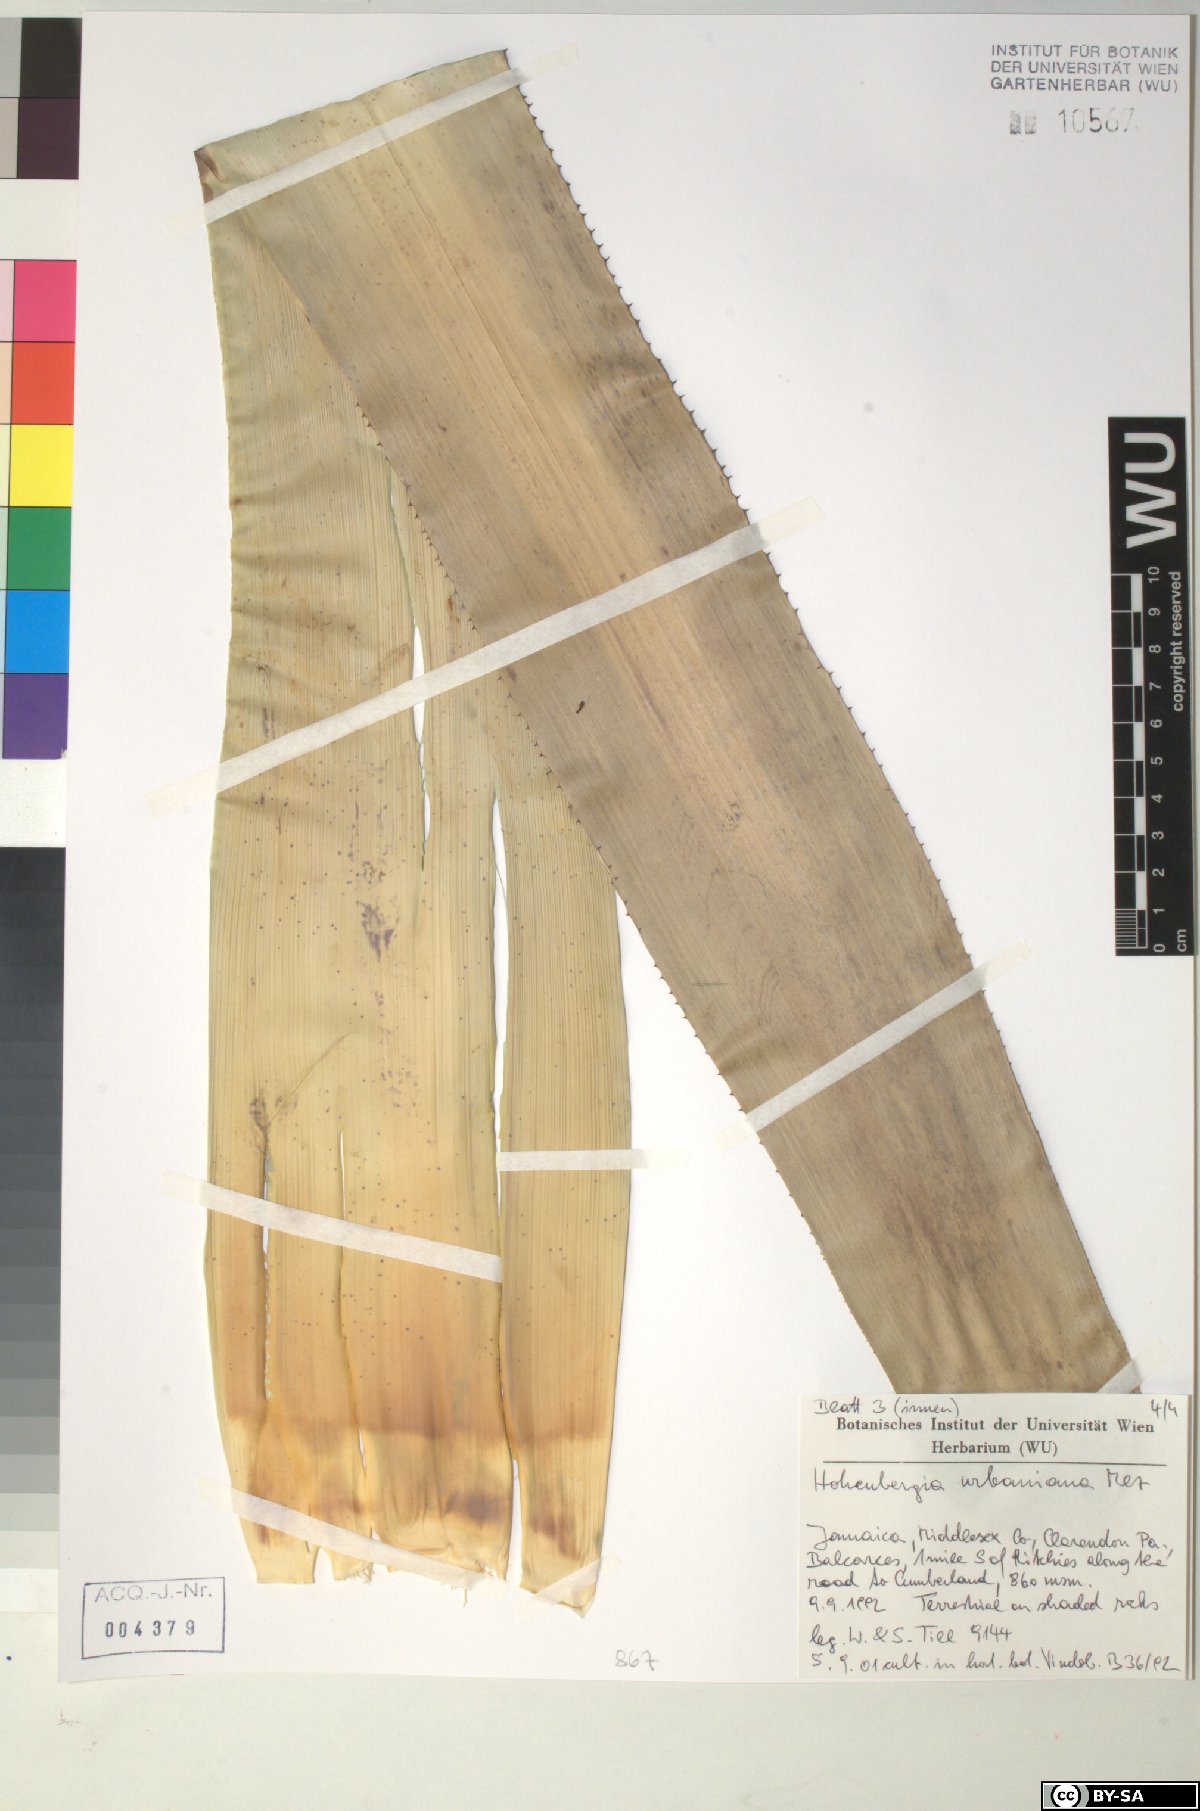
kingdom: Plantae
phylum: Tracheophyta
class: Liliopsida
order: Poales
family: Bromeliaceae
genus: Wittmackia
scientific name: Wittmackia urbaniana
